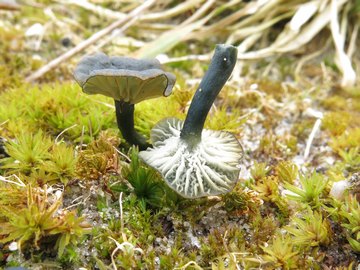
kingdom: Fungi
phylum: Basidiomycota
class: Agaricomycetes
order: Agaricales
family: Hygrophoraceae
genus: Arrhenia
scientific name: Arrhenia chlorocyanea
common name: blågrøn fontænehat
